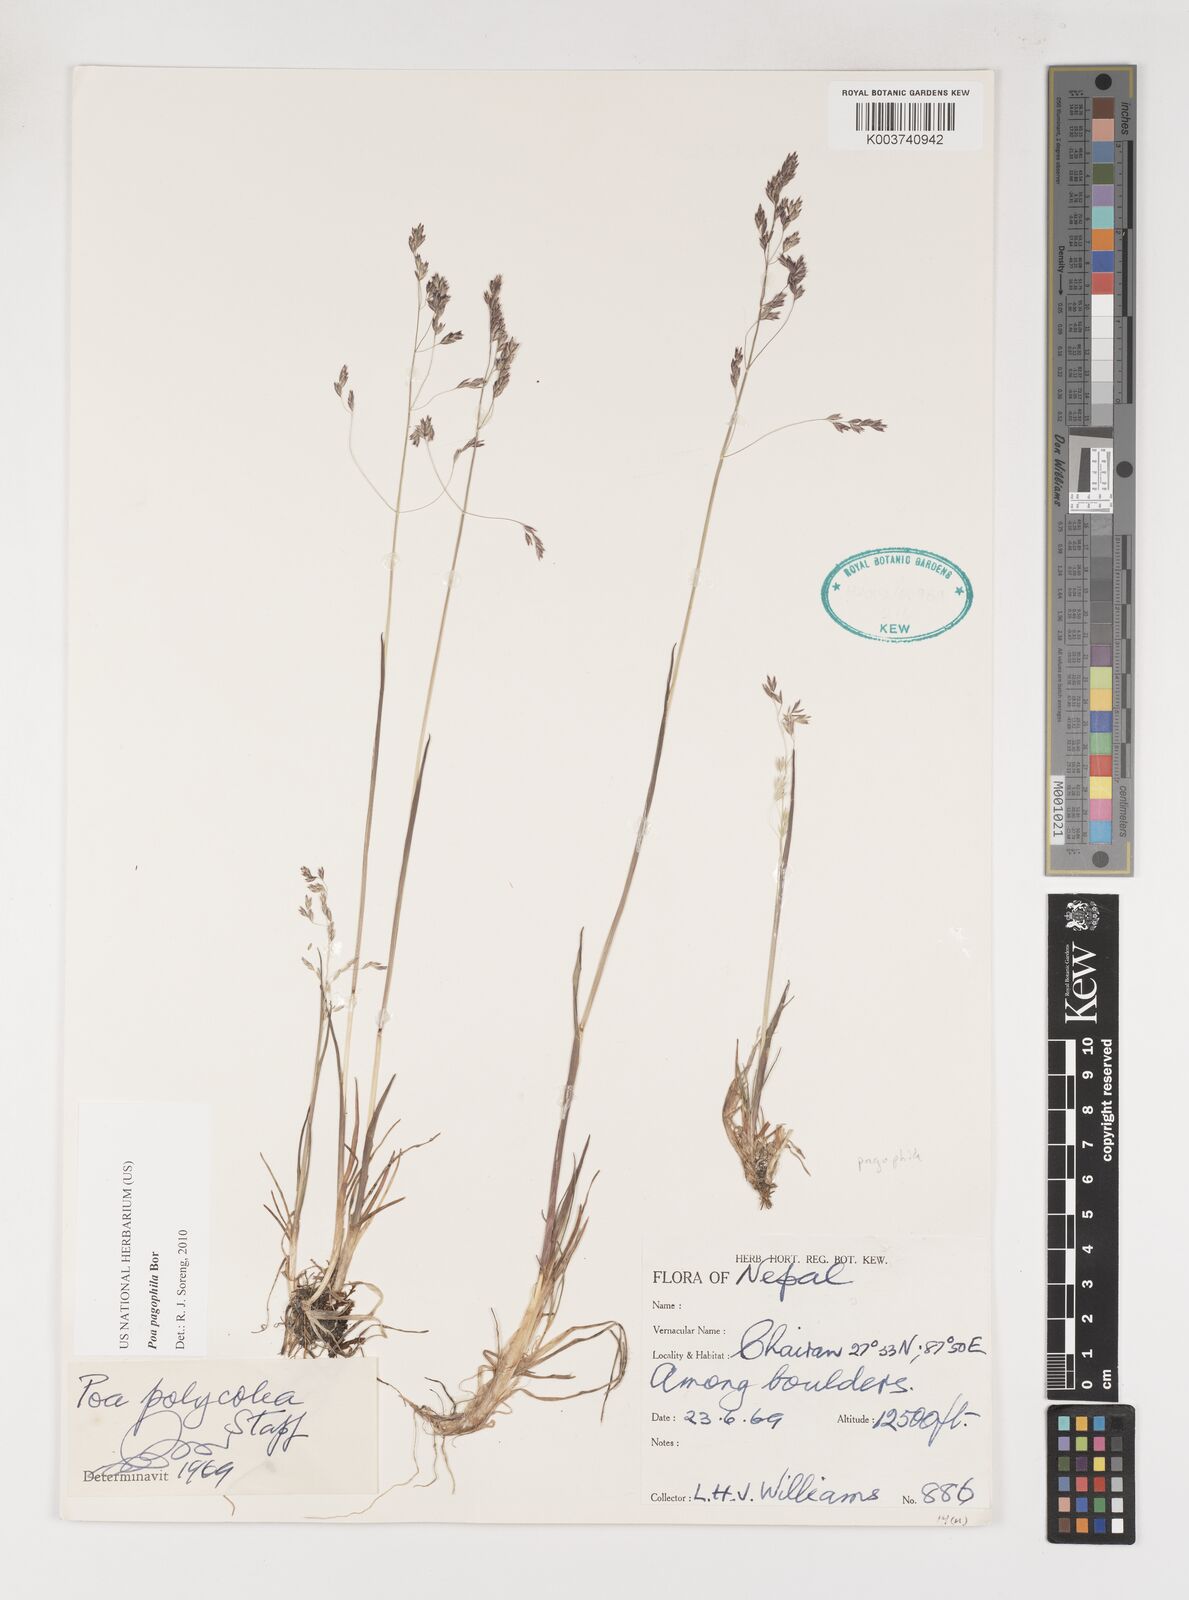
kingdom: Plantae
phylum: Tracheophyta
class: Liliopsida
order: Poales
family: Poaceae
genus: Poa
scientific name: Poa pagophila
